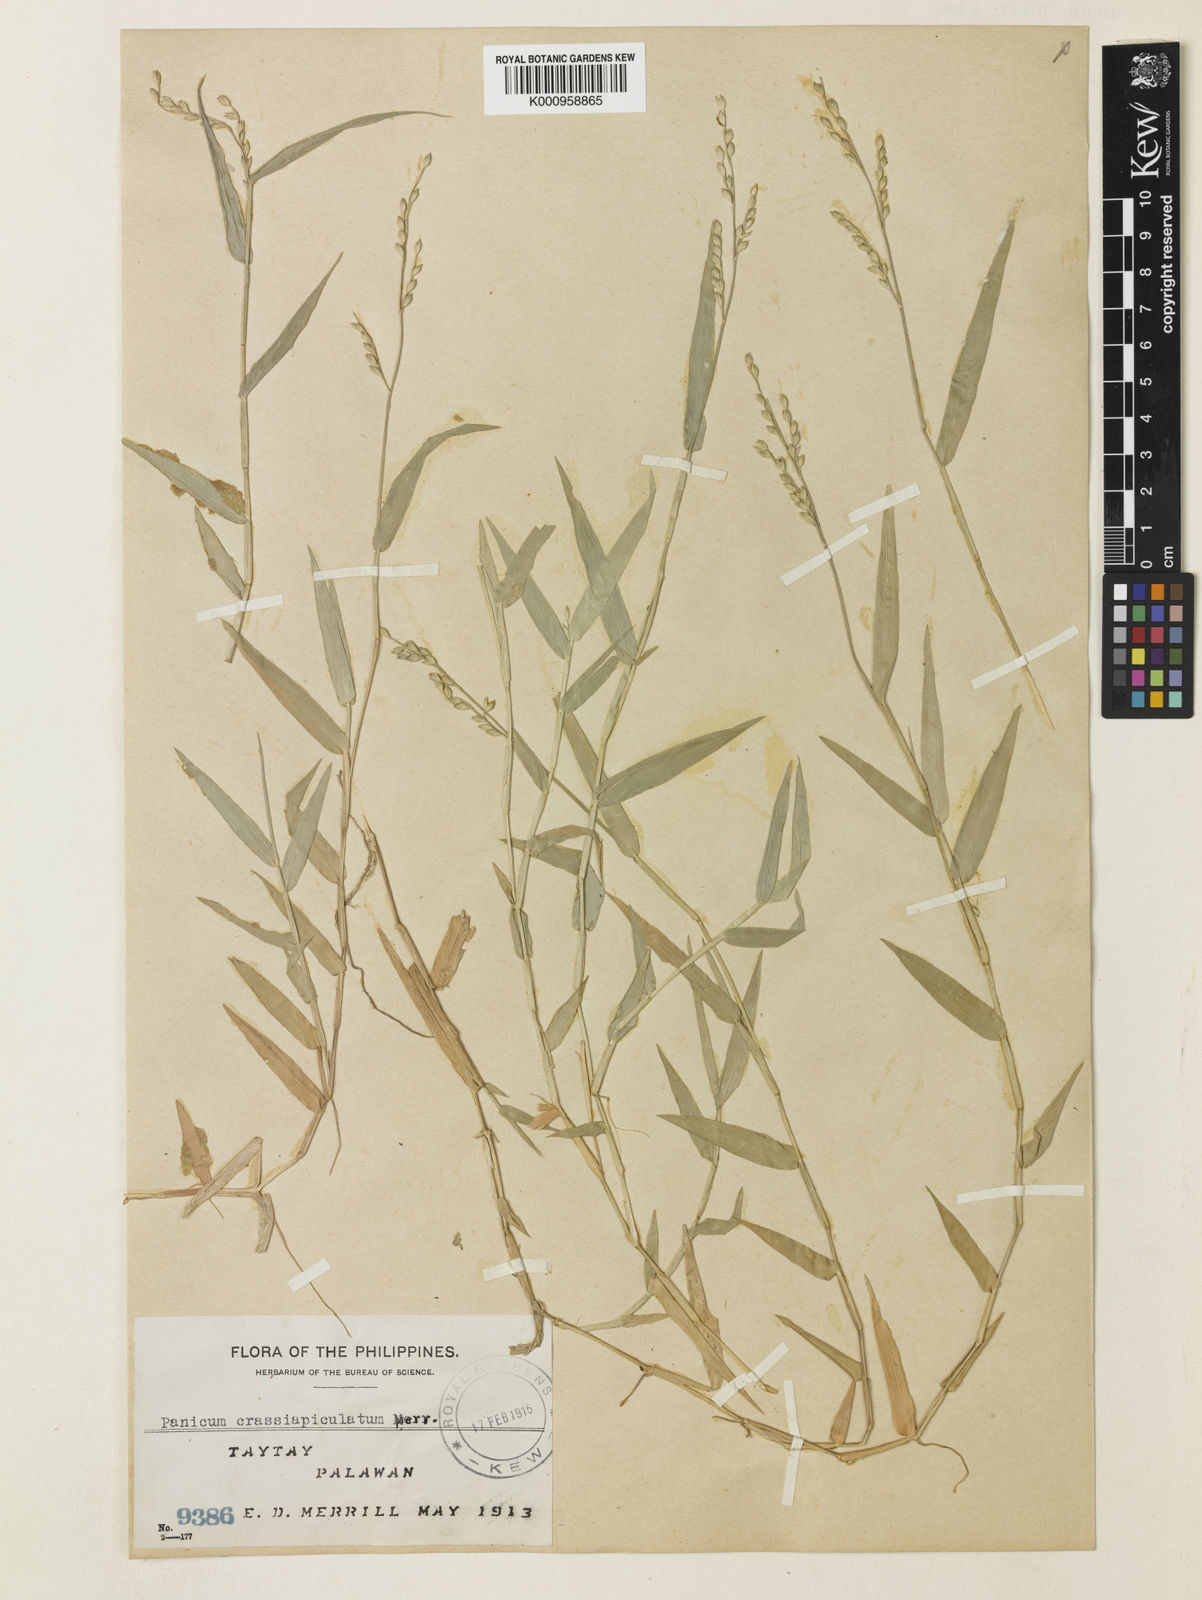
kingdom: Plantae
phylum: Tracheophyta
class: Liliopsida
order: Poales
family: Poaceae
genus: Acroceras
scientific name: Acroceras munroanum
